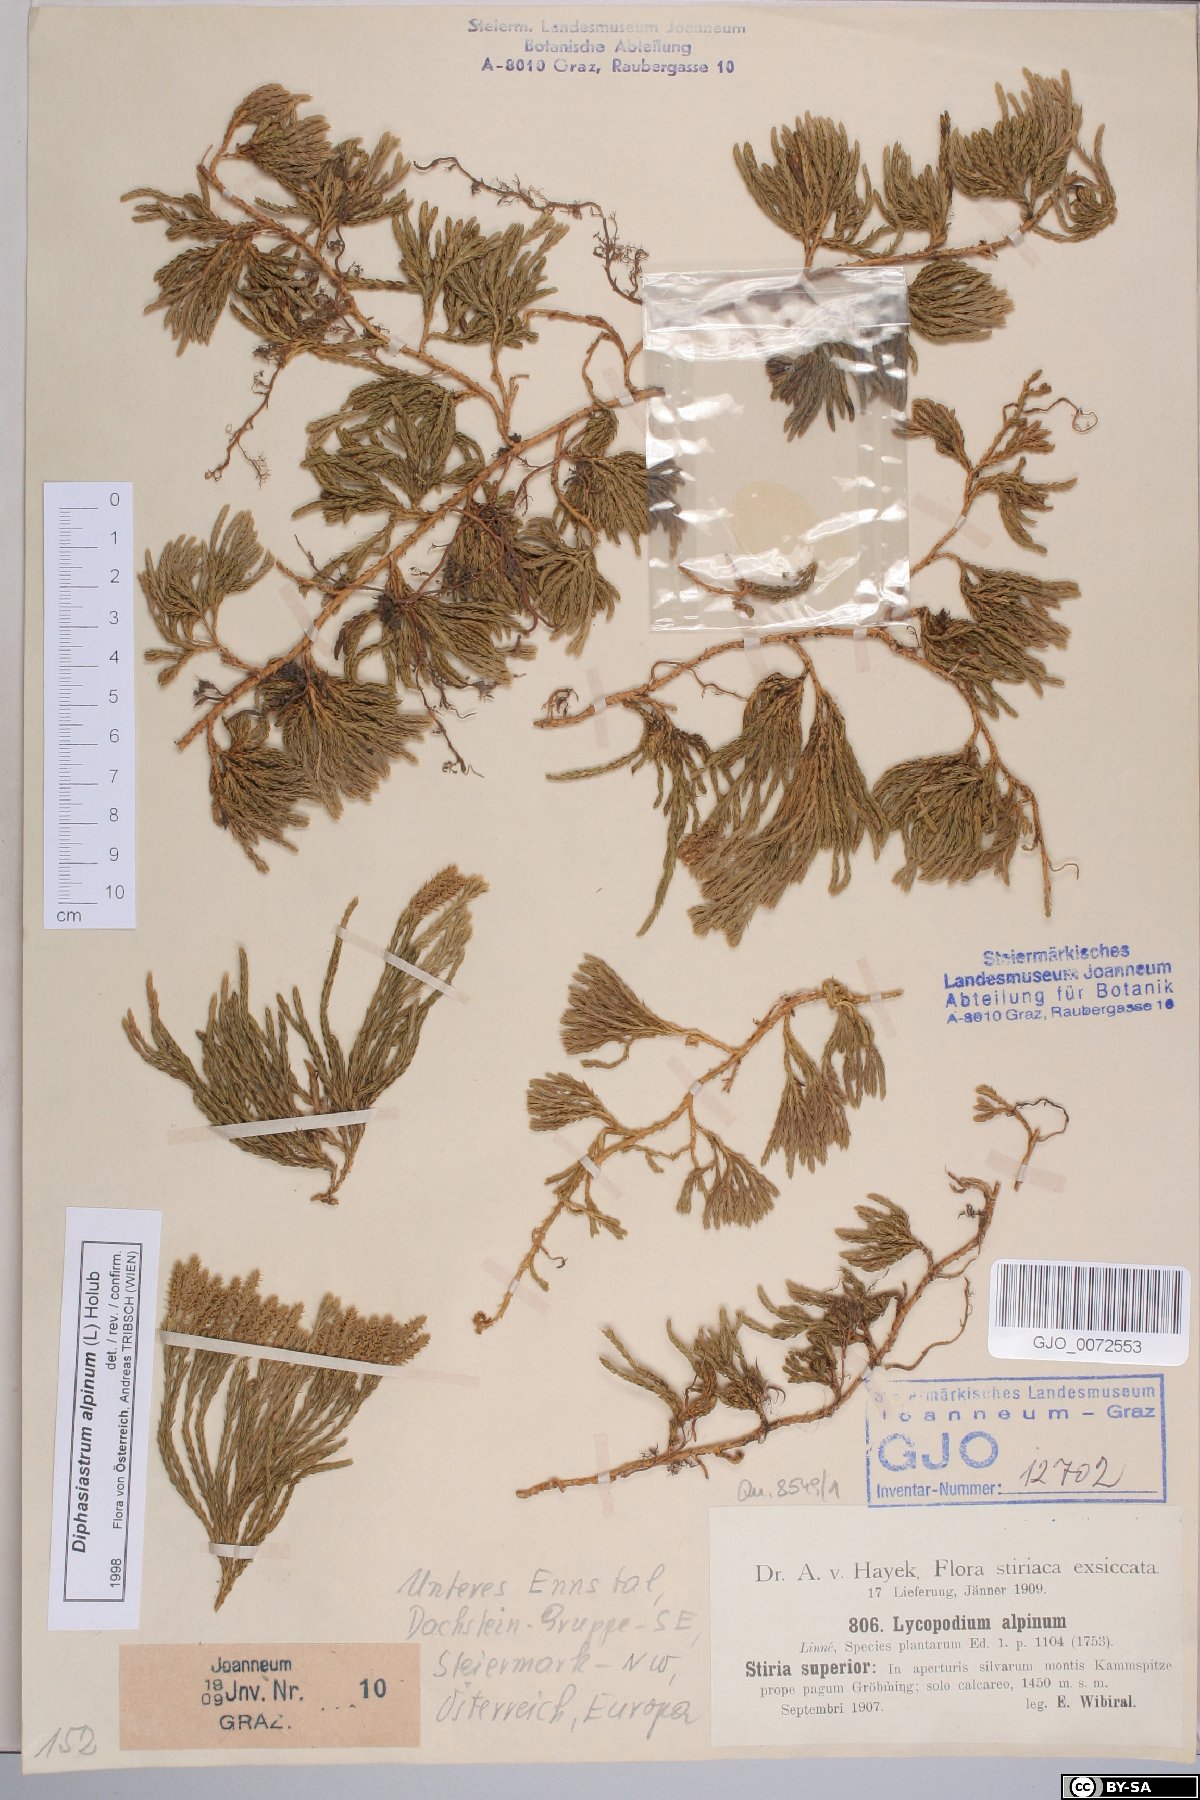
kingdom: Plantae
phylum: Tracheophyta
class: Lycopodiopsida
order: Lycopodiales
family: Lycopodiaceae
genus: Diphasiastrum
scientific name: Diphasiastrum alpinum
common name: Alpine clubmoss
